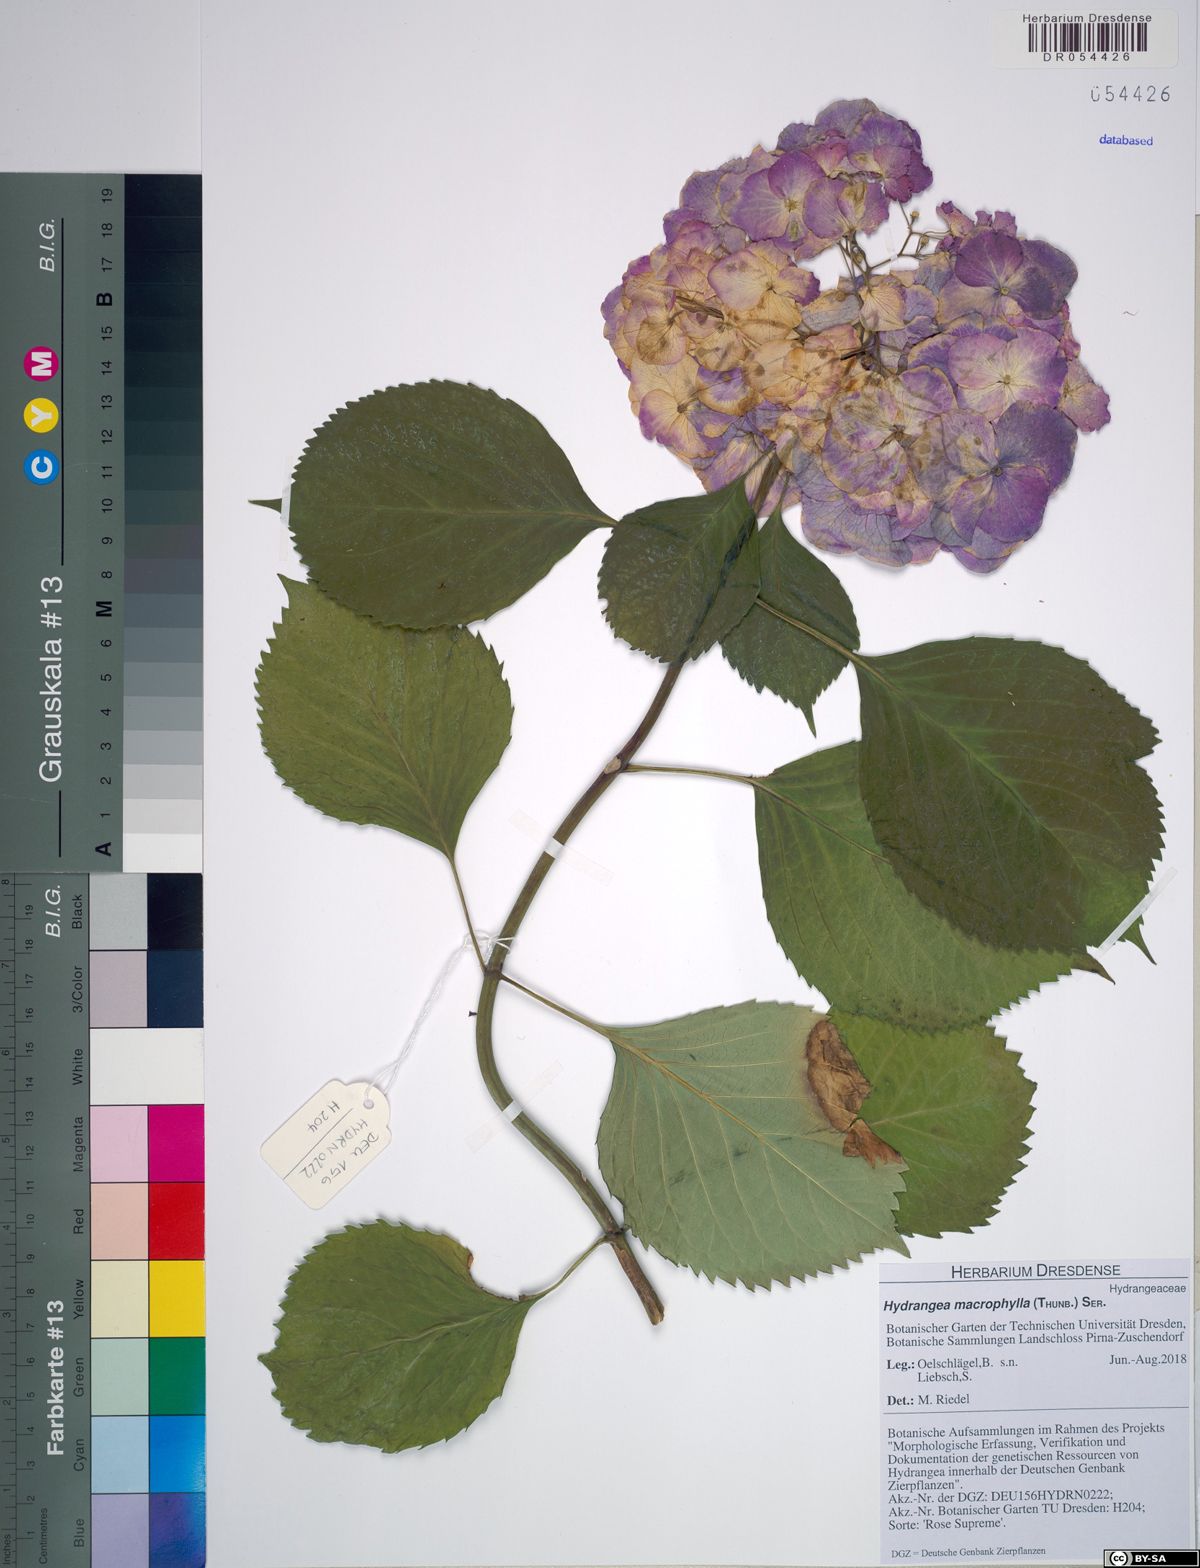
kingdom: Plantae
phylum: Tracheophyta
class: Magnoliopsida
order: Cornales
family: Hydrangeaceae
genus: Hydrangea
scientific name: Hydrangea macrophylla
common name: Hydrangea
